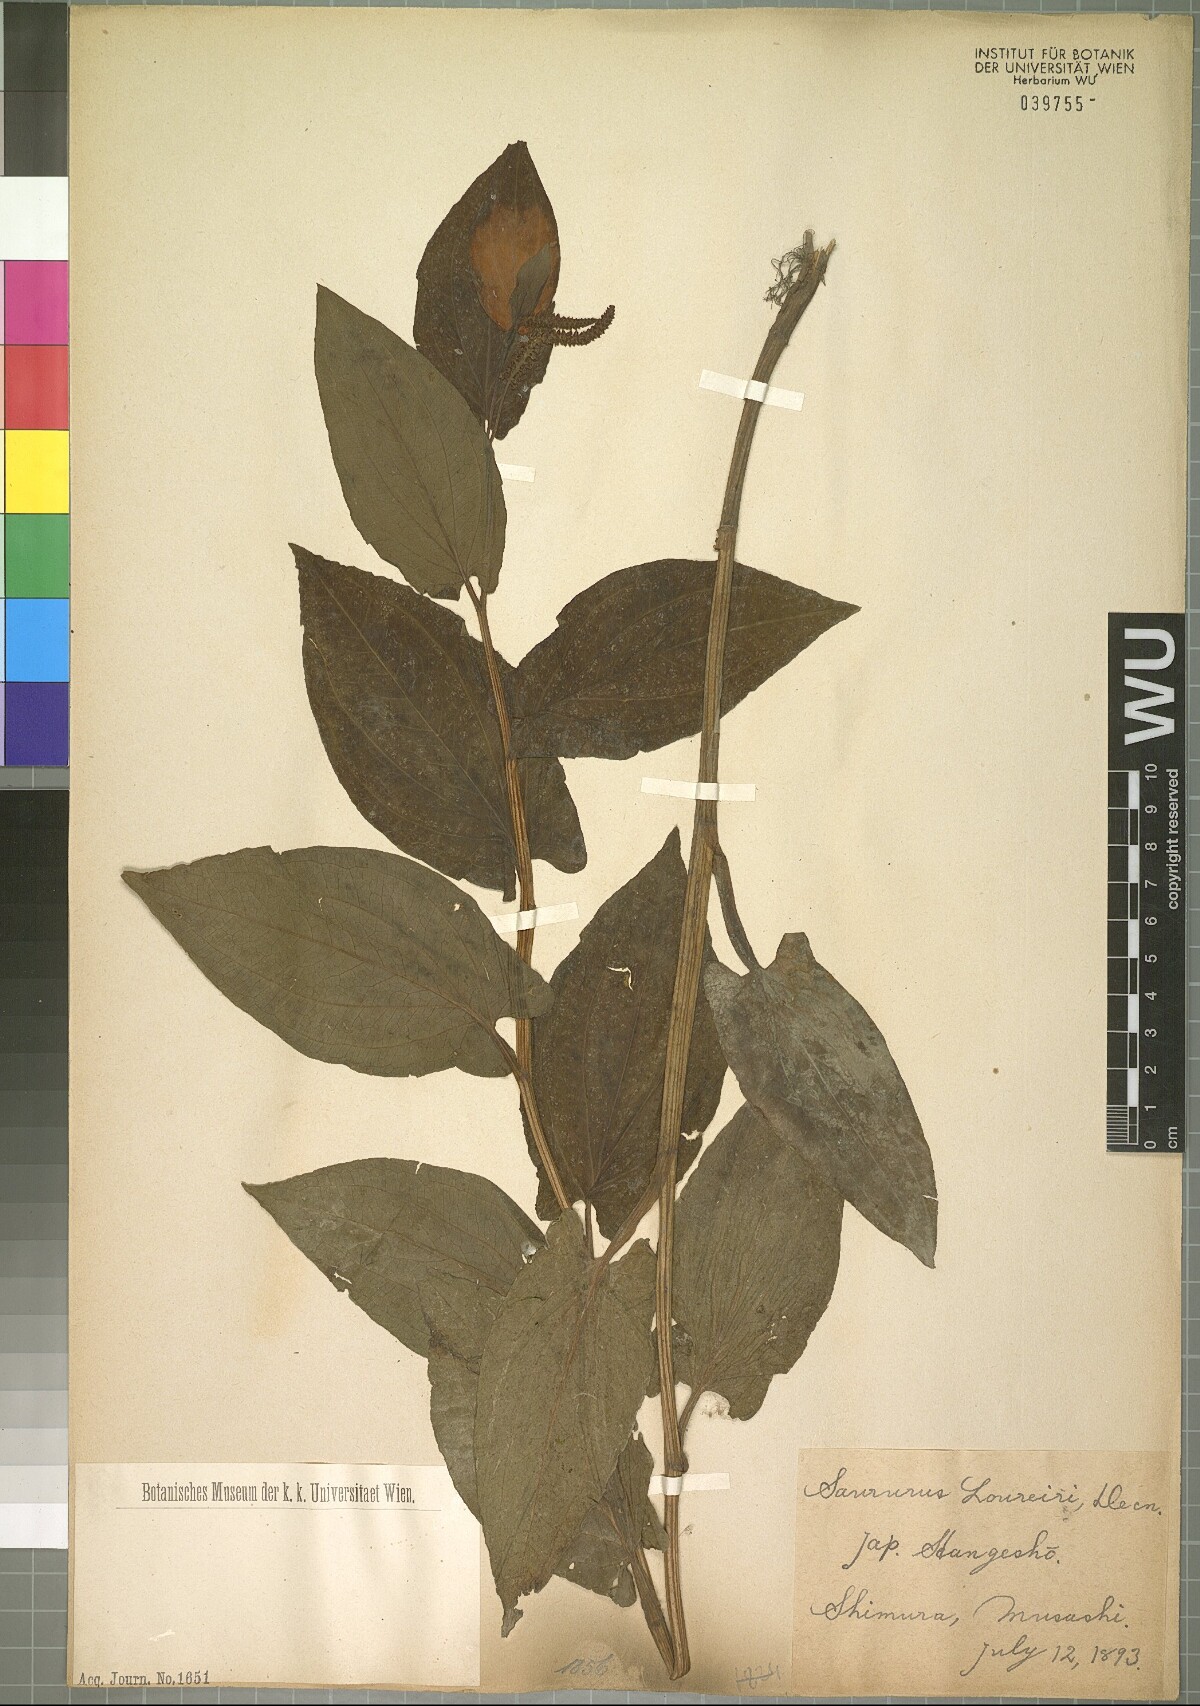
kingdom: Plantae
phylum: Tracheophyta
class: Magnoliopsida
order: Piperales
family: Saururaceae
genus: Saururus
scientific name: Saururus chinensis
